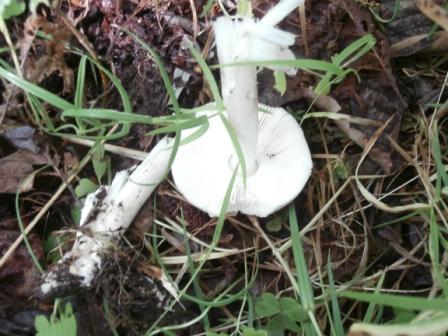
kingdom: Fungi
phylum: Basidiomycota
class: Agaricomycetes
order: Agaricales
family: Amanitaceae
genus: Amanita
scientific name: Amanita vaginata
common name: grå kam-fluesvamp
